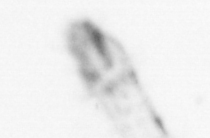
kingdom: Animalia
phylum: Chaetognatha
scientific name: Chaetognatha
